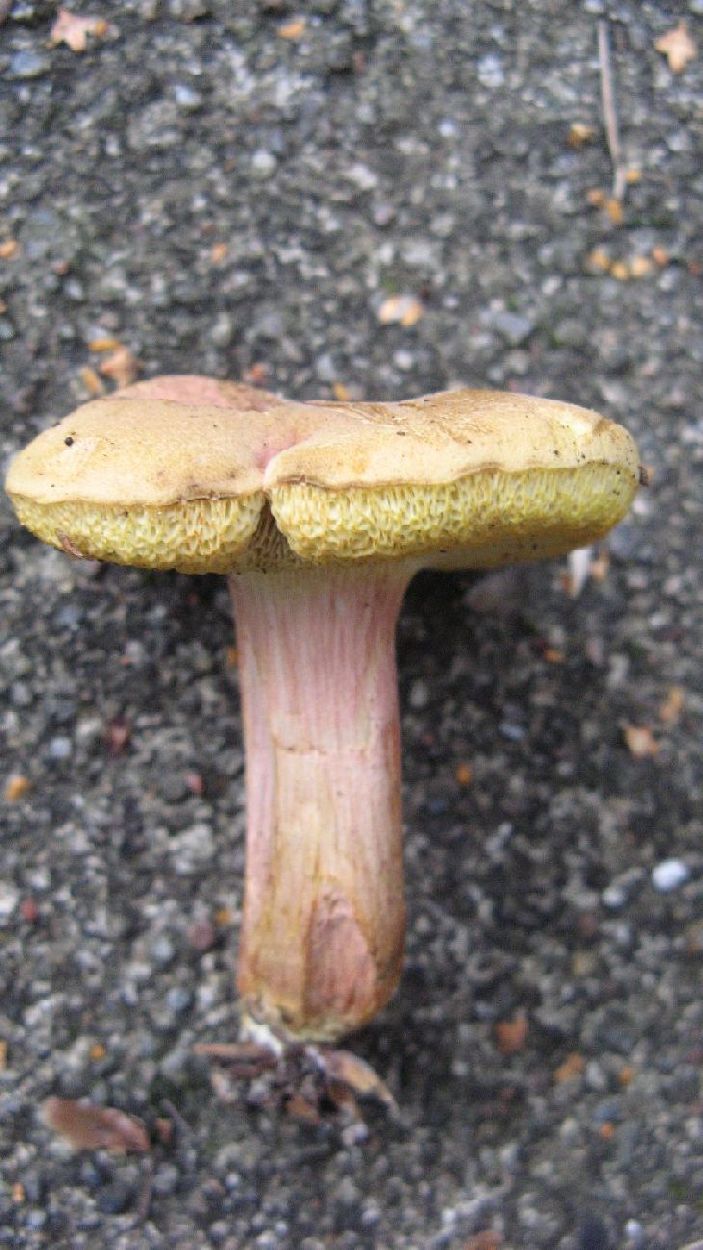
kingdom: Fungi
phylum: Basidiomycota
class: Agaricomycetes
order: Boletales
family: Boletaceae
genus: Hortiboletus
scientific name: Hortiboletus bubalinus
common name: aurora-rørhat
